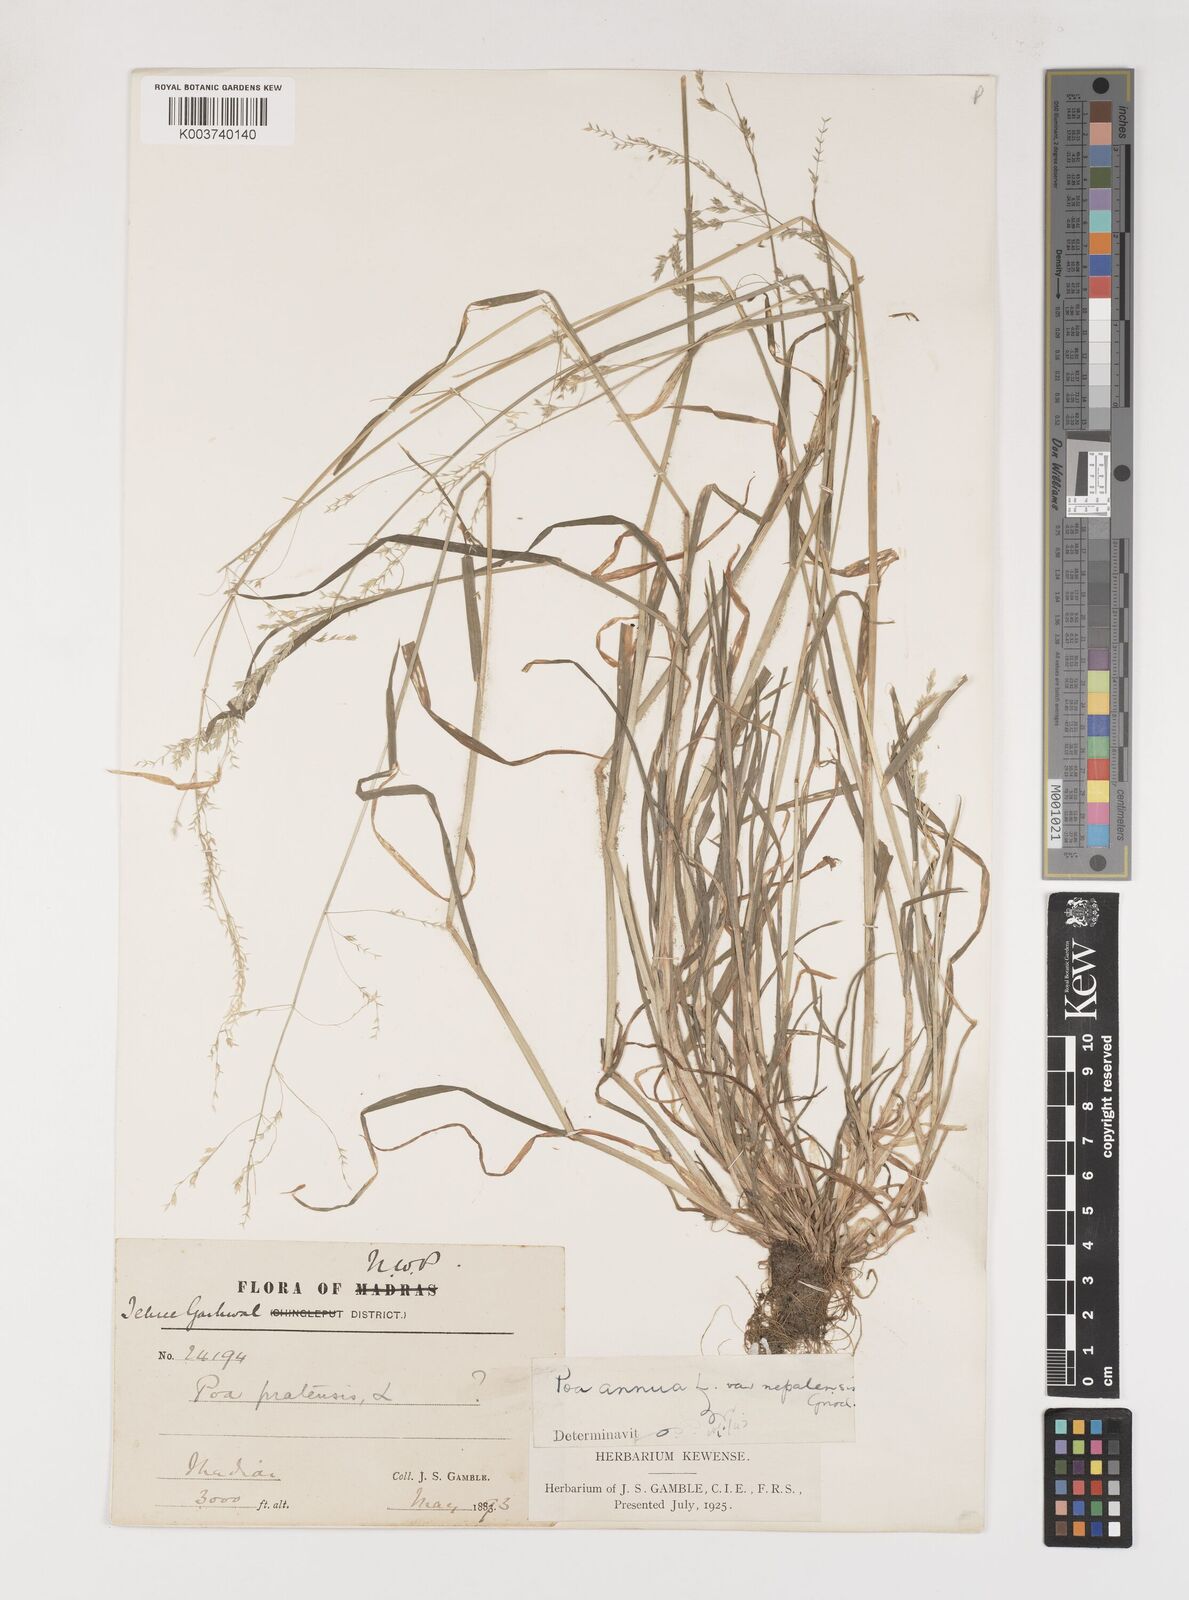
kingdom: Plantae
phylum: Tracheophyta
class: Liliopsida
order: Poales
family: Poaceae
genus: Poa
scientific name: Poa nepalensis
